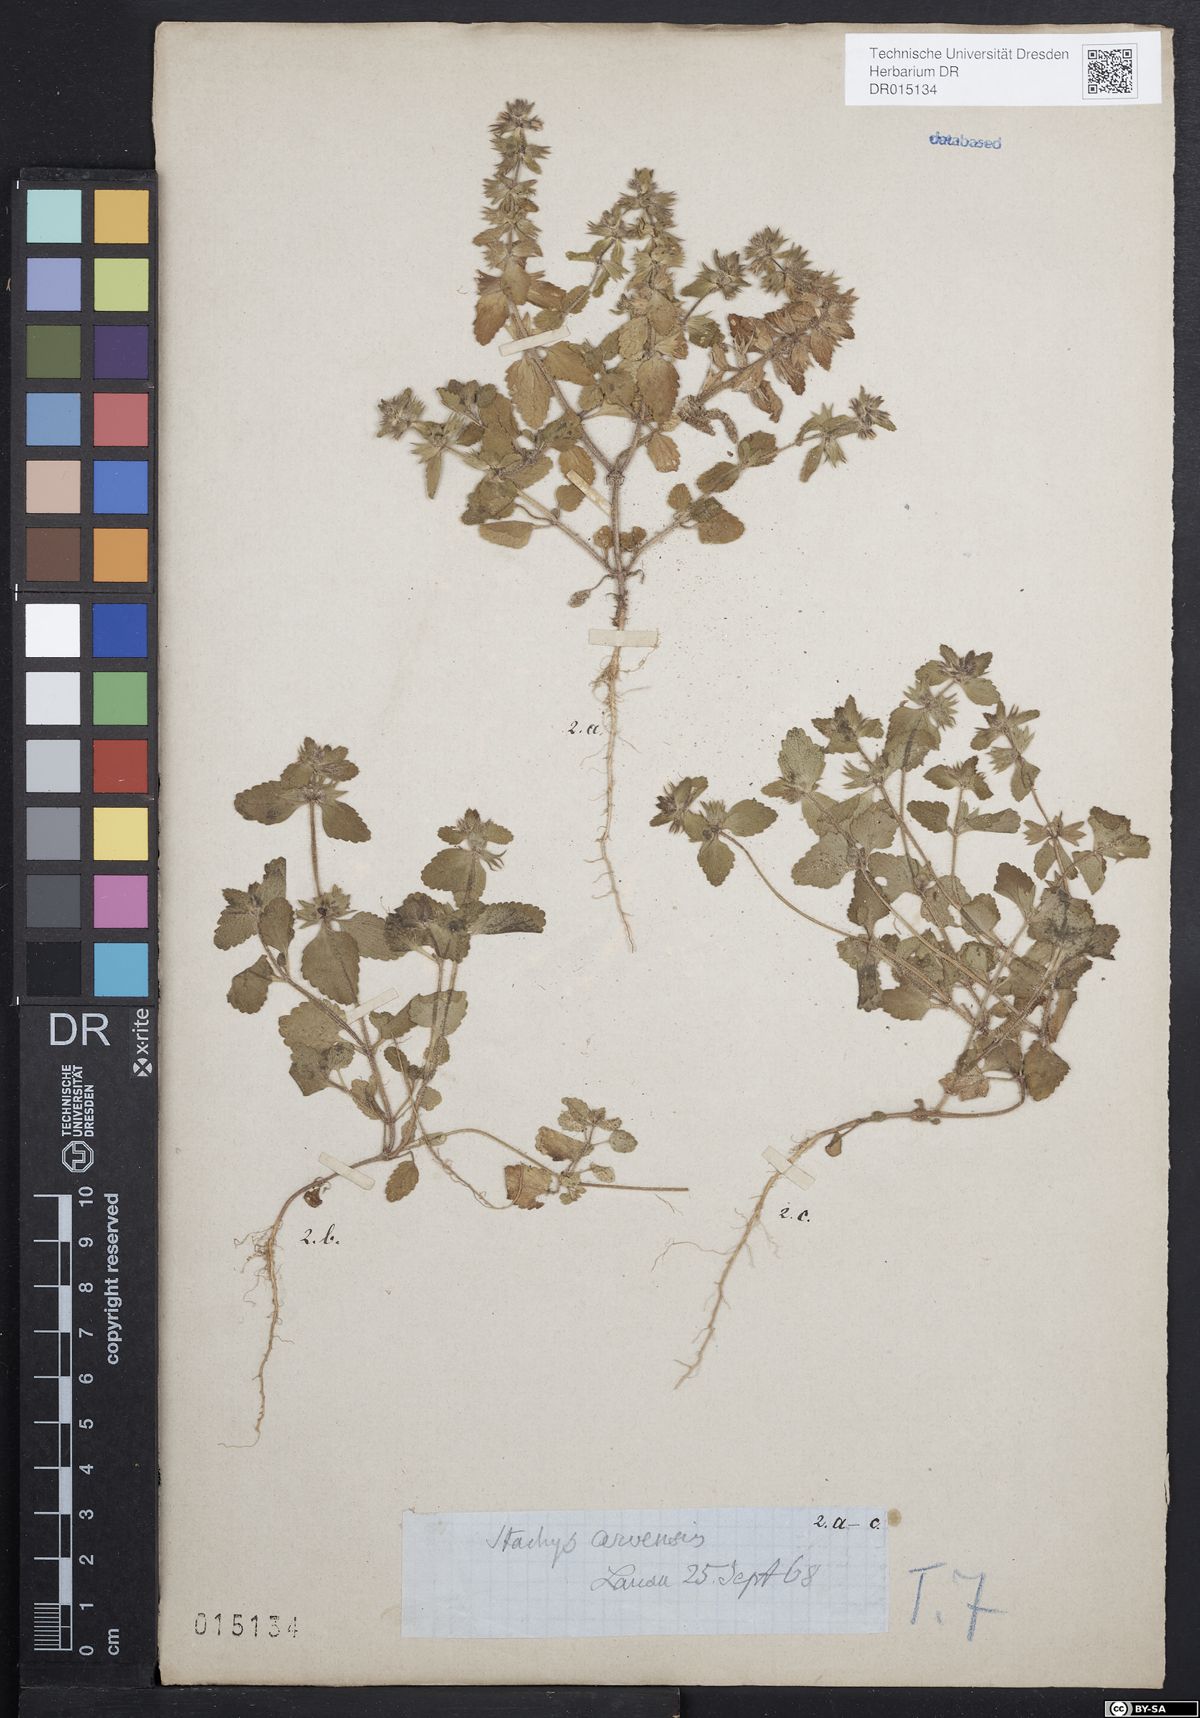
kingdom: Plantae
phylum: Tracheophyta
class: Magnoliopsida
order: Lamiales
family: Lamiaceae
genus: Stachys
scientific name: Stachys arvensis
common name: Field woundwort
